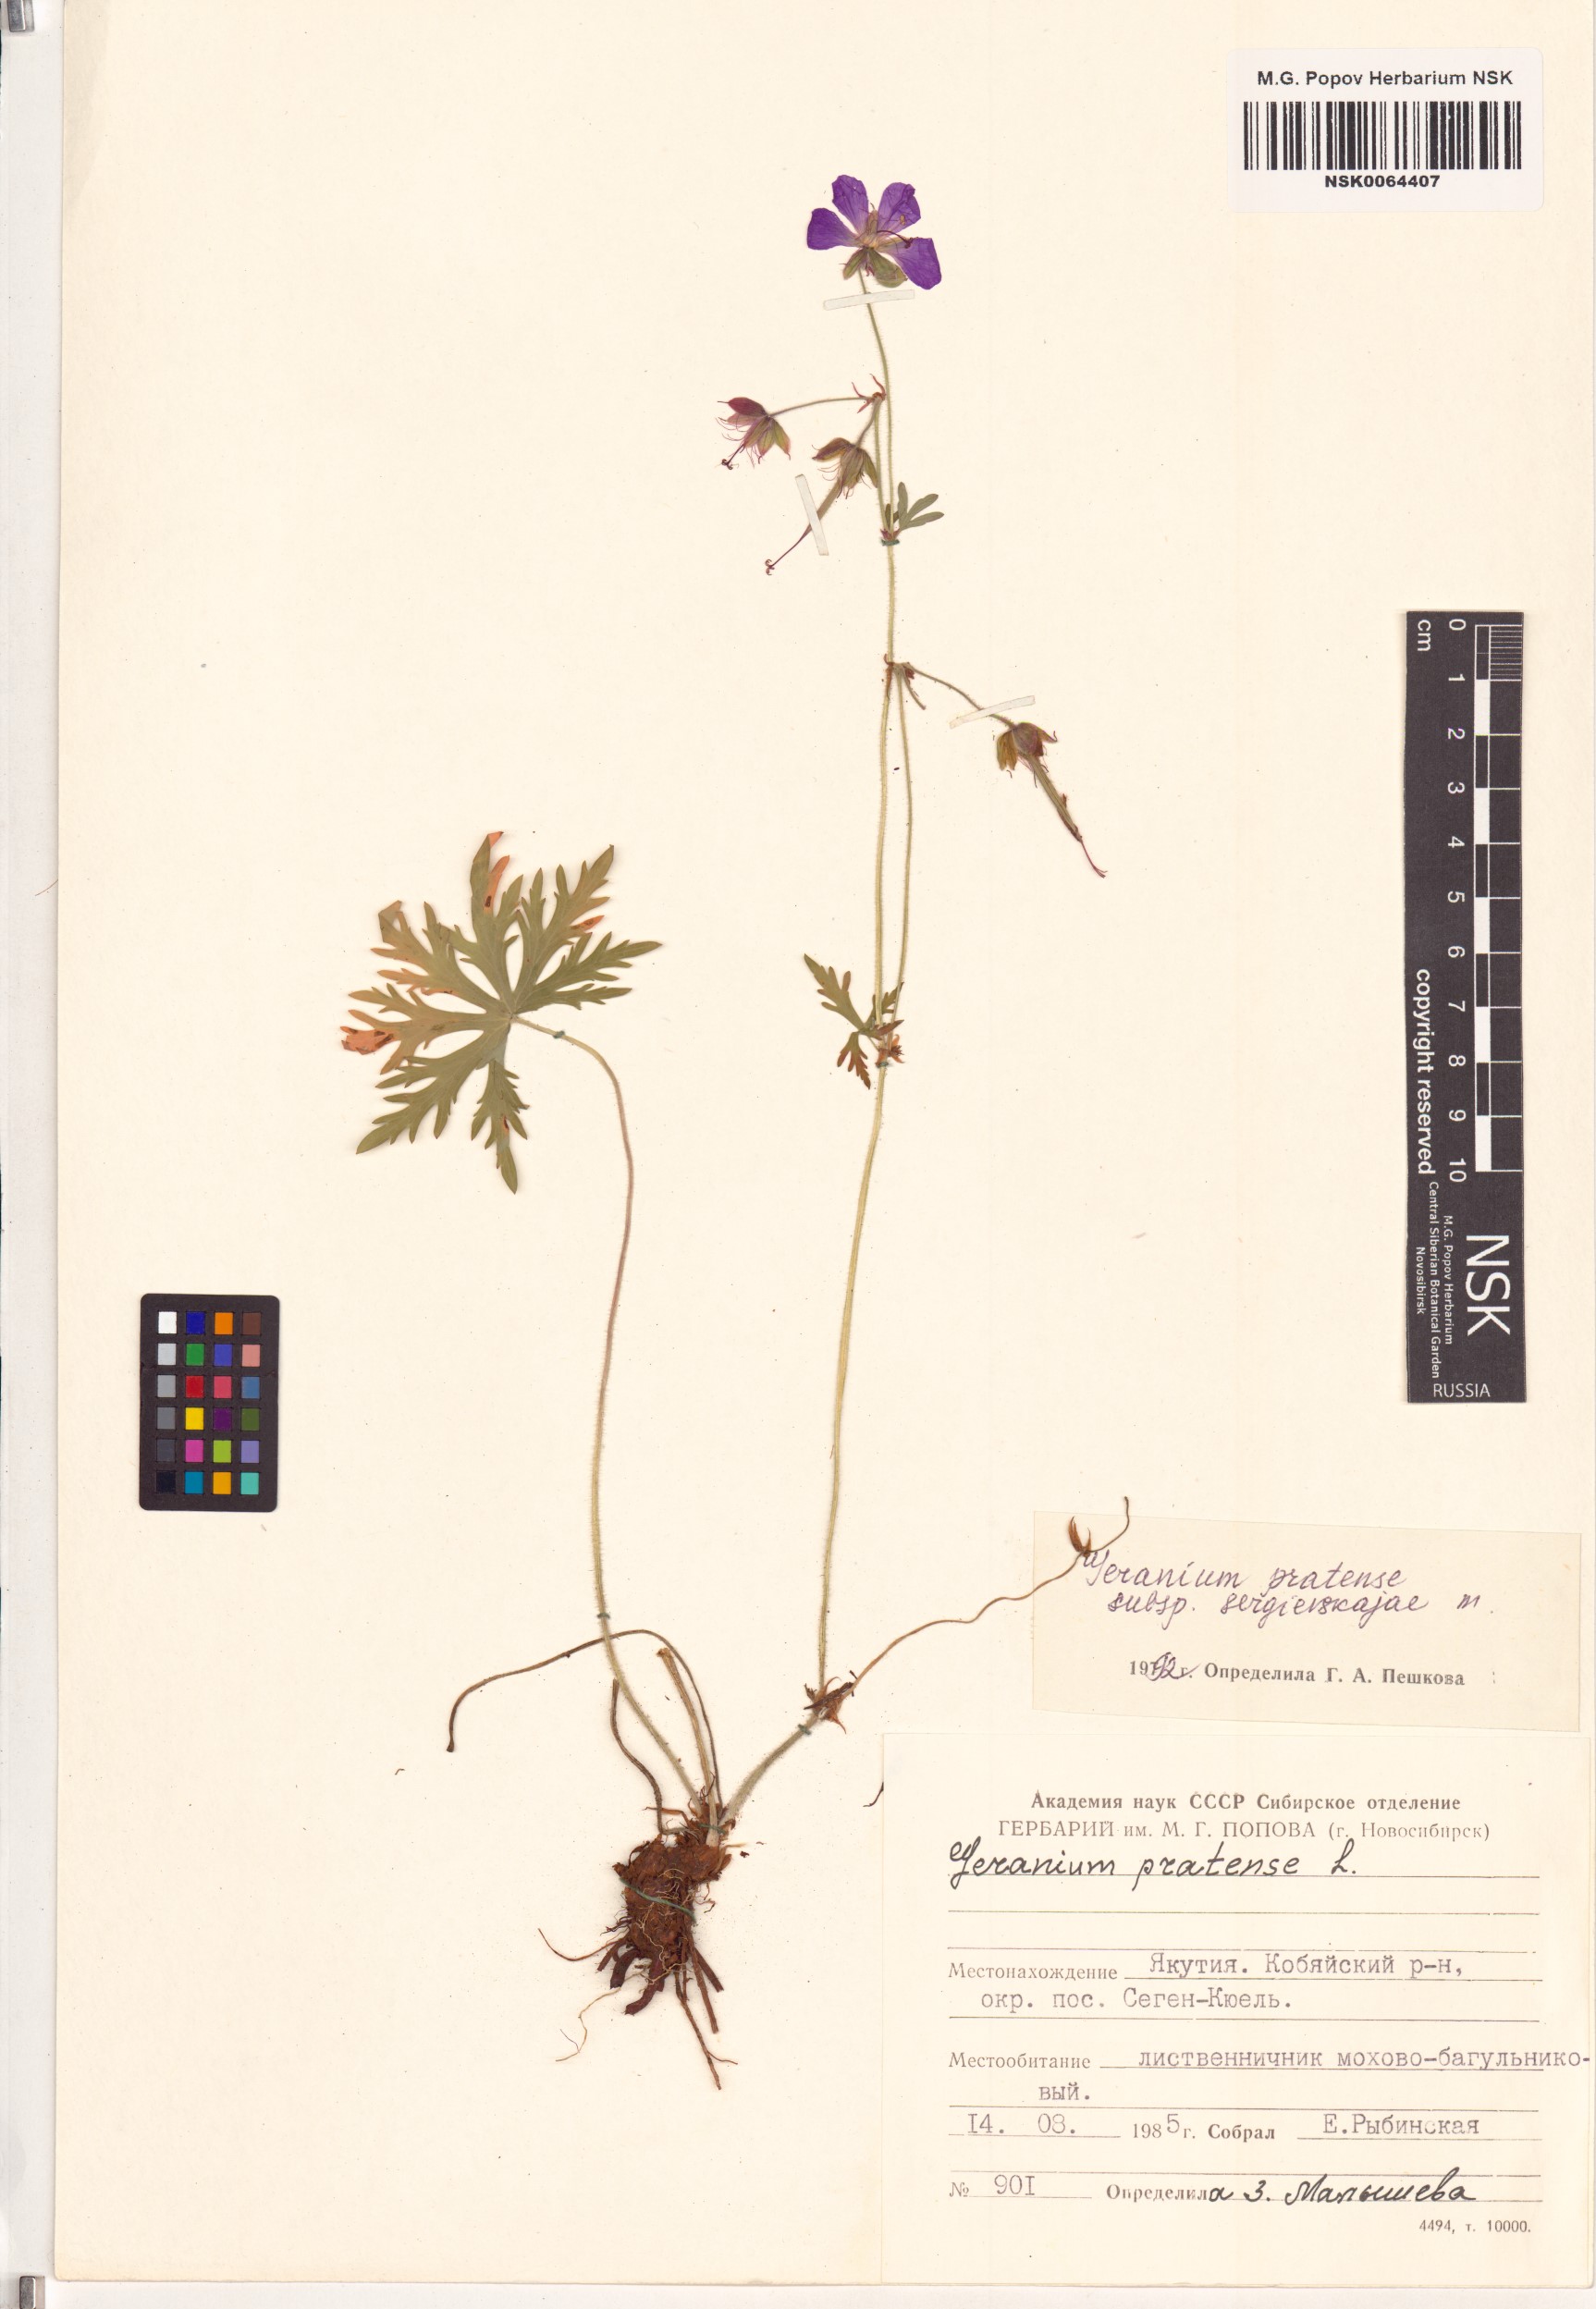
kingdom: Plantae
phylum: Tracheophyta
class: Magnoliopsida
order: Geraniales
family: Geraniaceae
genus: Geranium
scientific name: Geranium pratense
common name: Meadow crane's-bill
